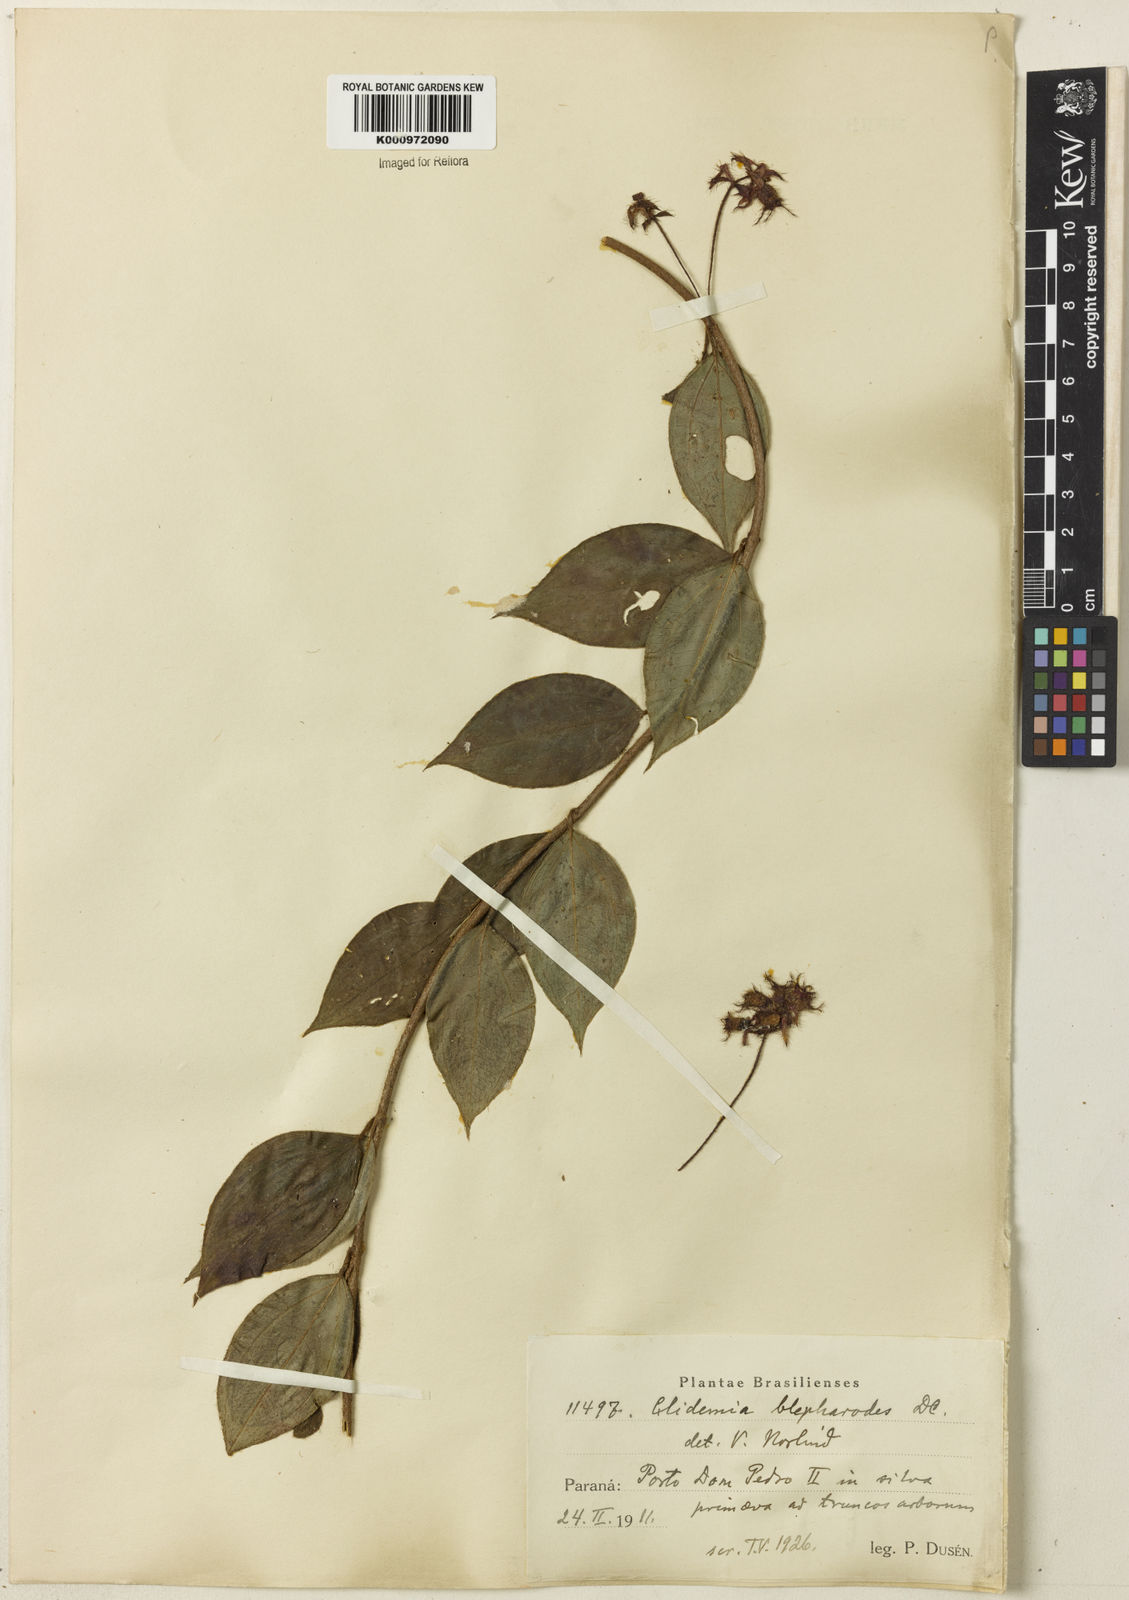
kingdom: Plantae
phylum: Tracheophyta
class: Magnoliopsida
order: Myrtales
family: Melastomataceae
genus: Miconia
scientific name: Miconia
